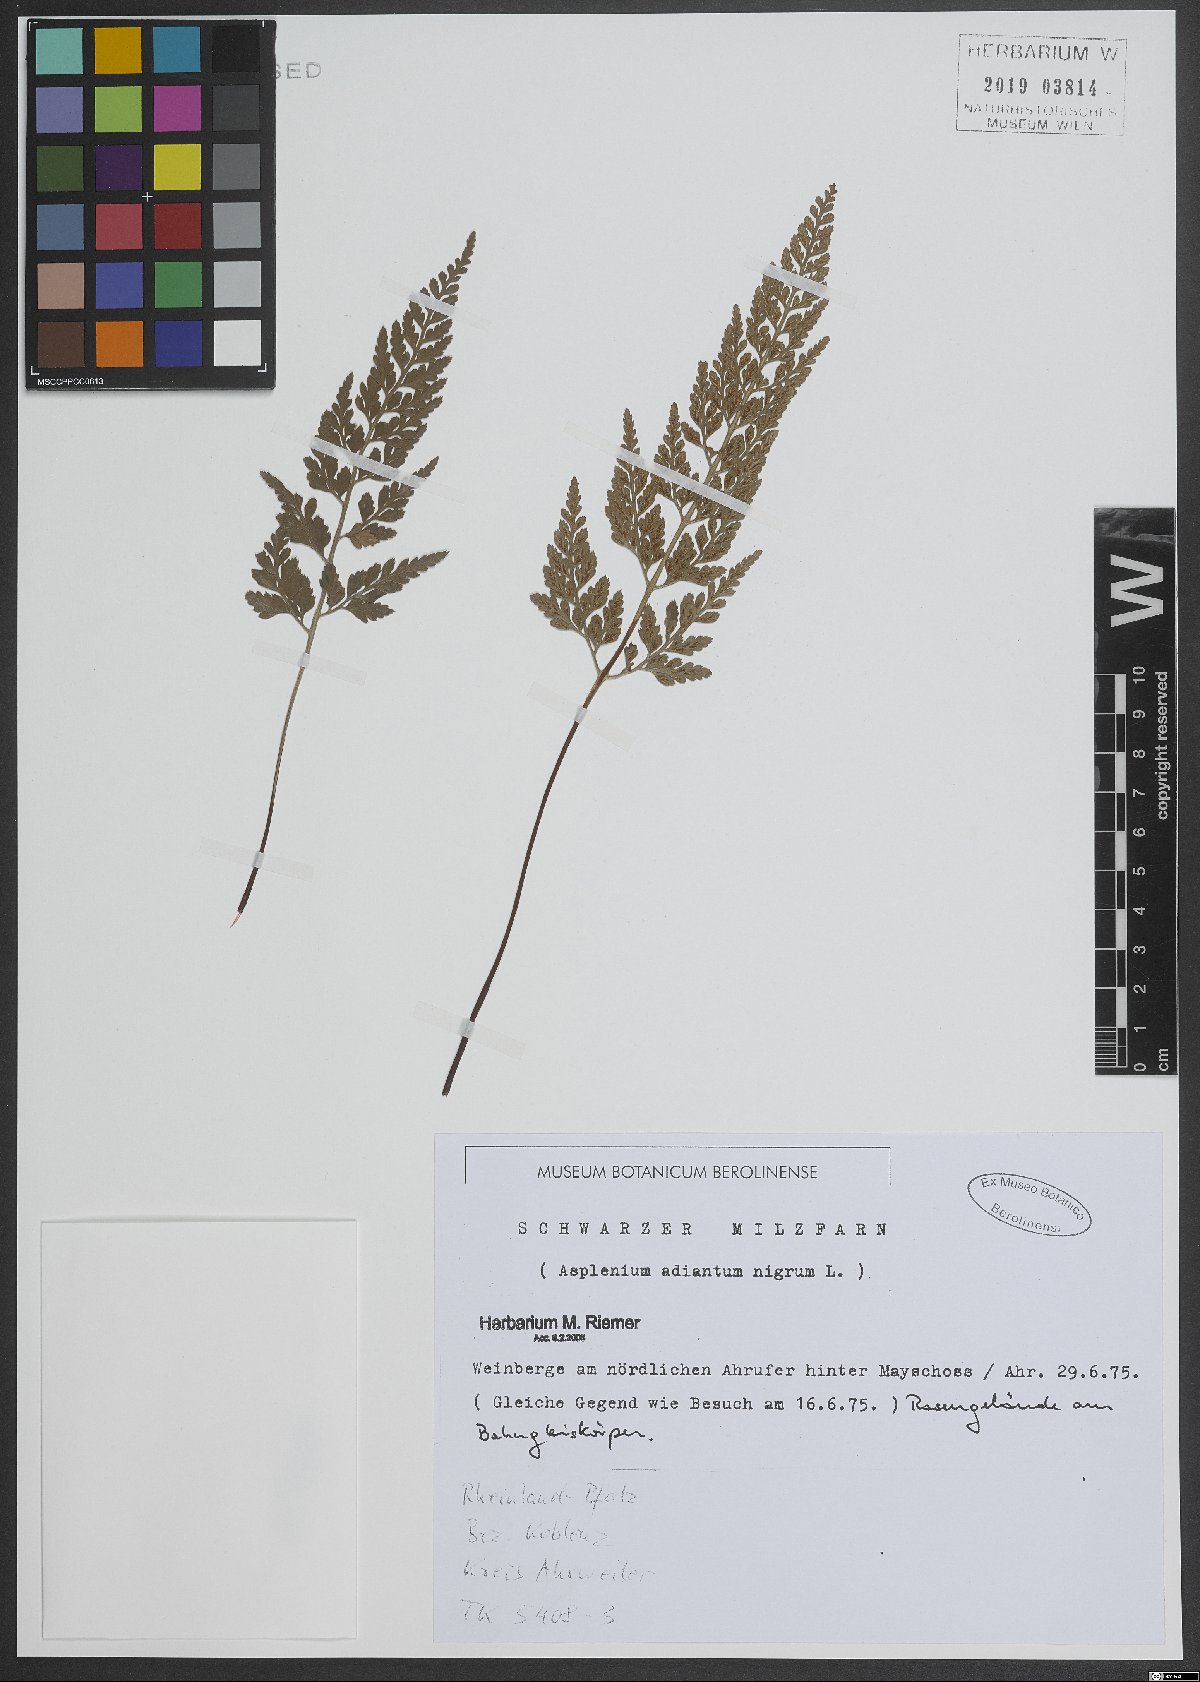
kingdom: Plantae
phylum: Tracheophyta
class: Polypodiopsida
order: Polypodiales
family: Aspleniaceae
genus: Asplenium
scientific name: Asplenium adiantum-nigrum
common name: Black spleenwort
